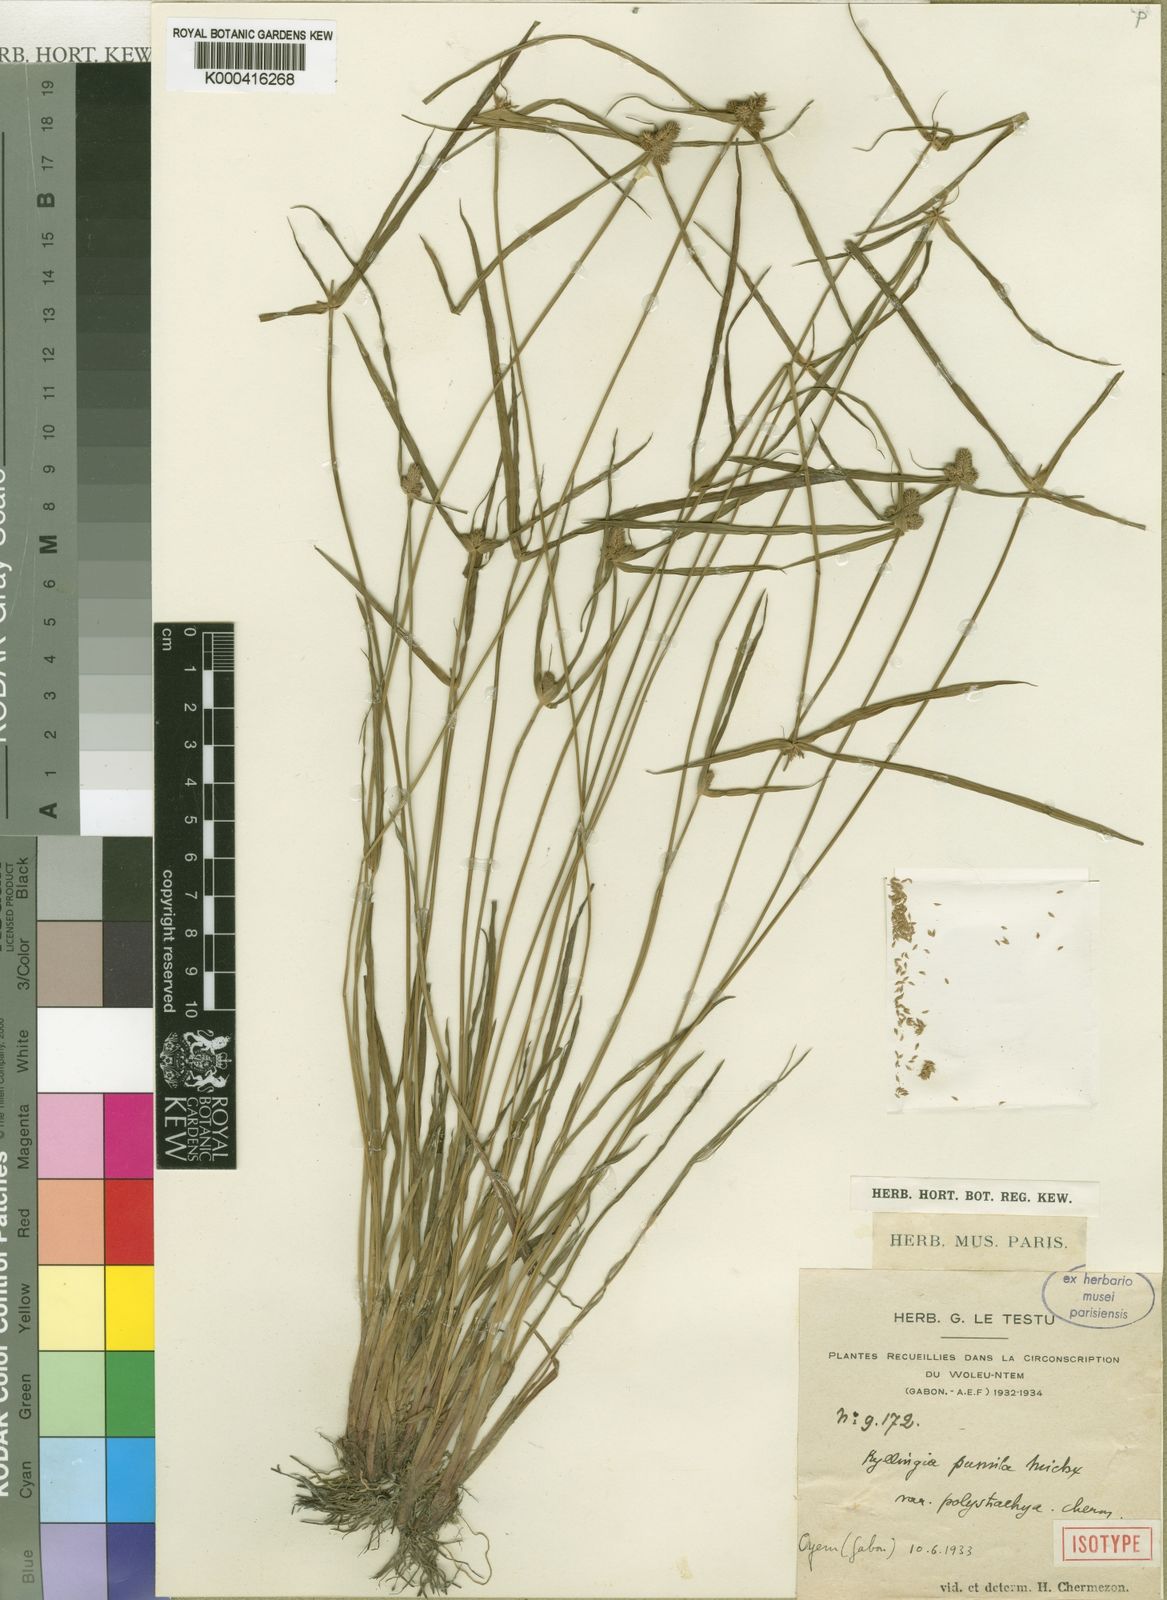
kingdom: Plantae
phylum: Tracheophyta
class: Liliopsida
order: Poales
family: Cyperaceae
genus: Cyperus
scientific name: Cyperus hortensis
